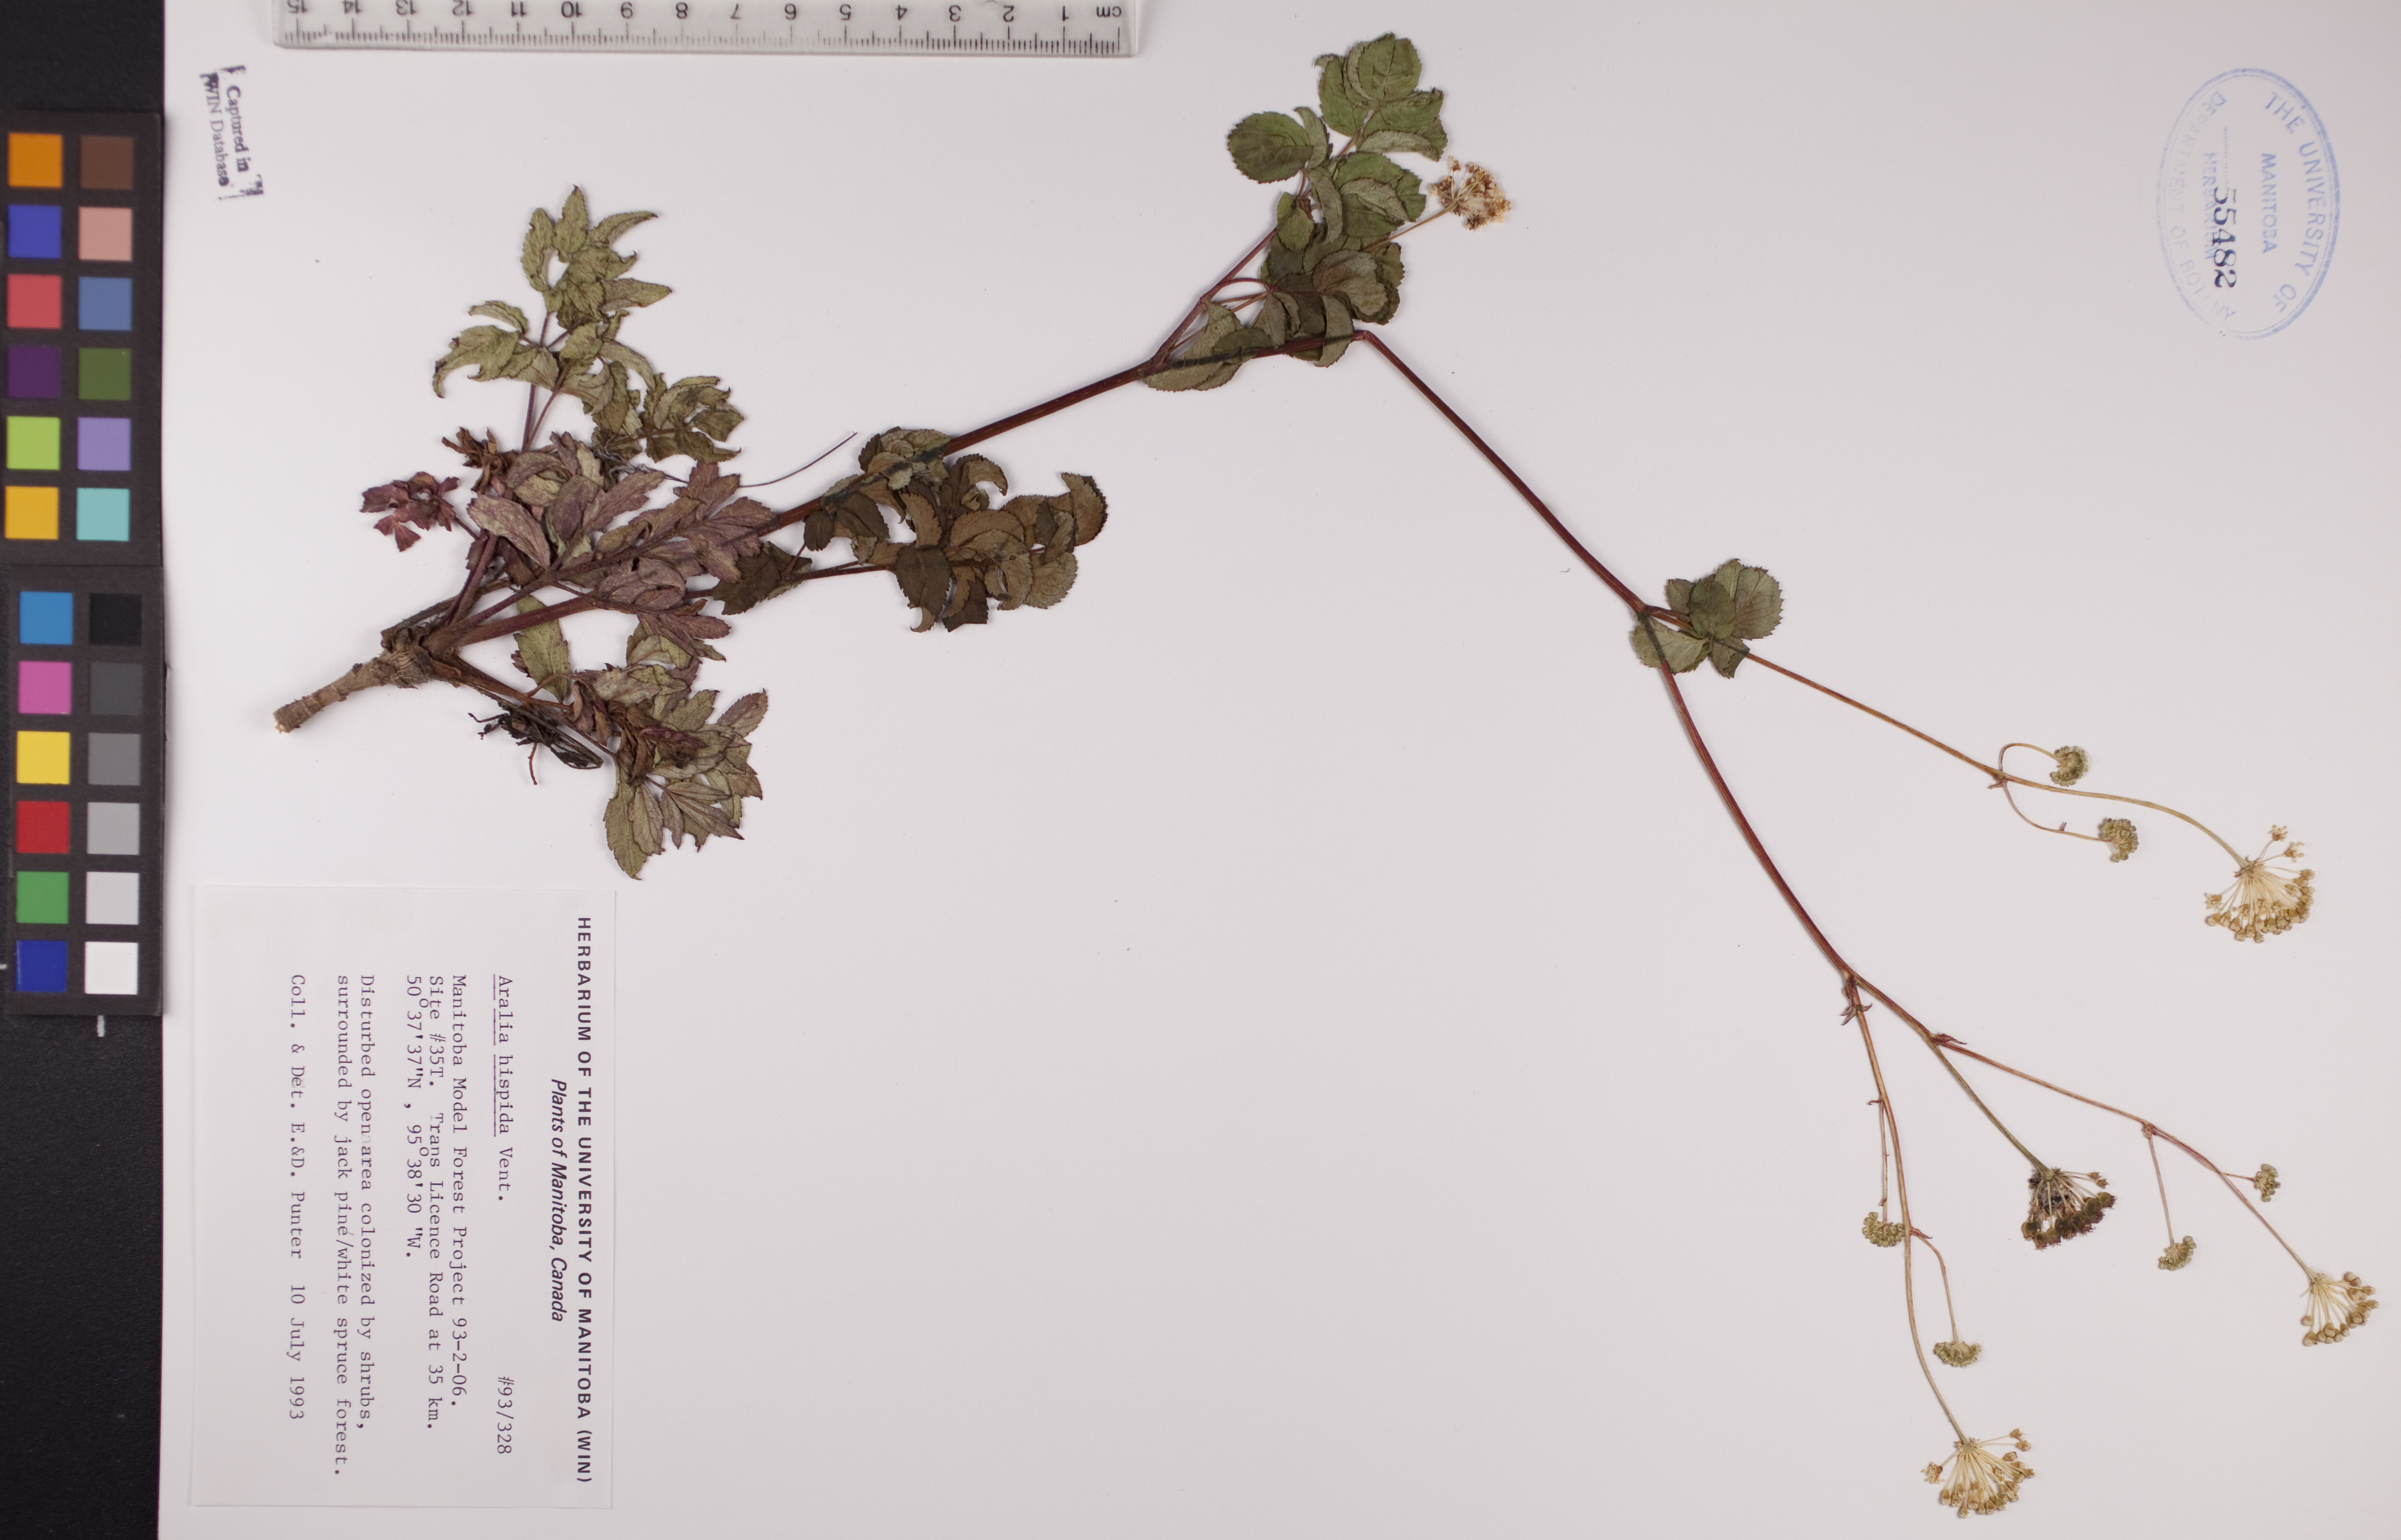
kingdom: Plantae
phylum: Tracheophyta
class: Magnoliopsida
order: Apiales
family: Araliaceae
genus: Aralia
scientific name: Aralia hispida
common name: Bristly sarsaparilla
